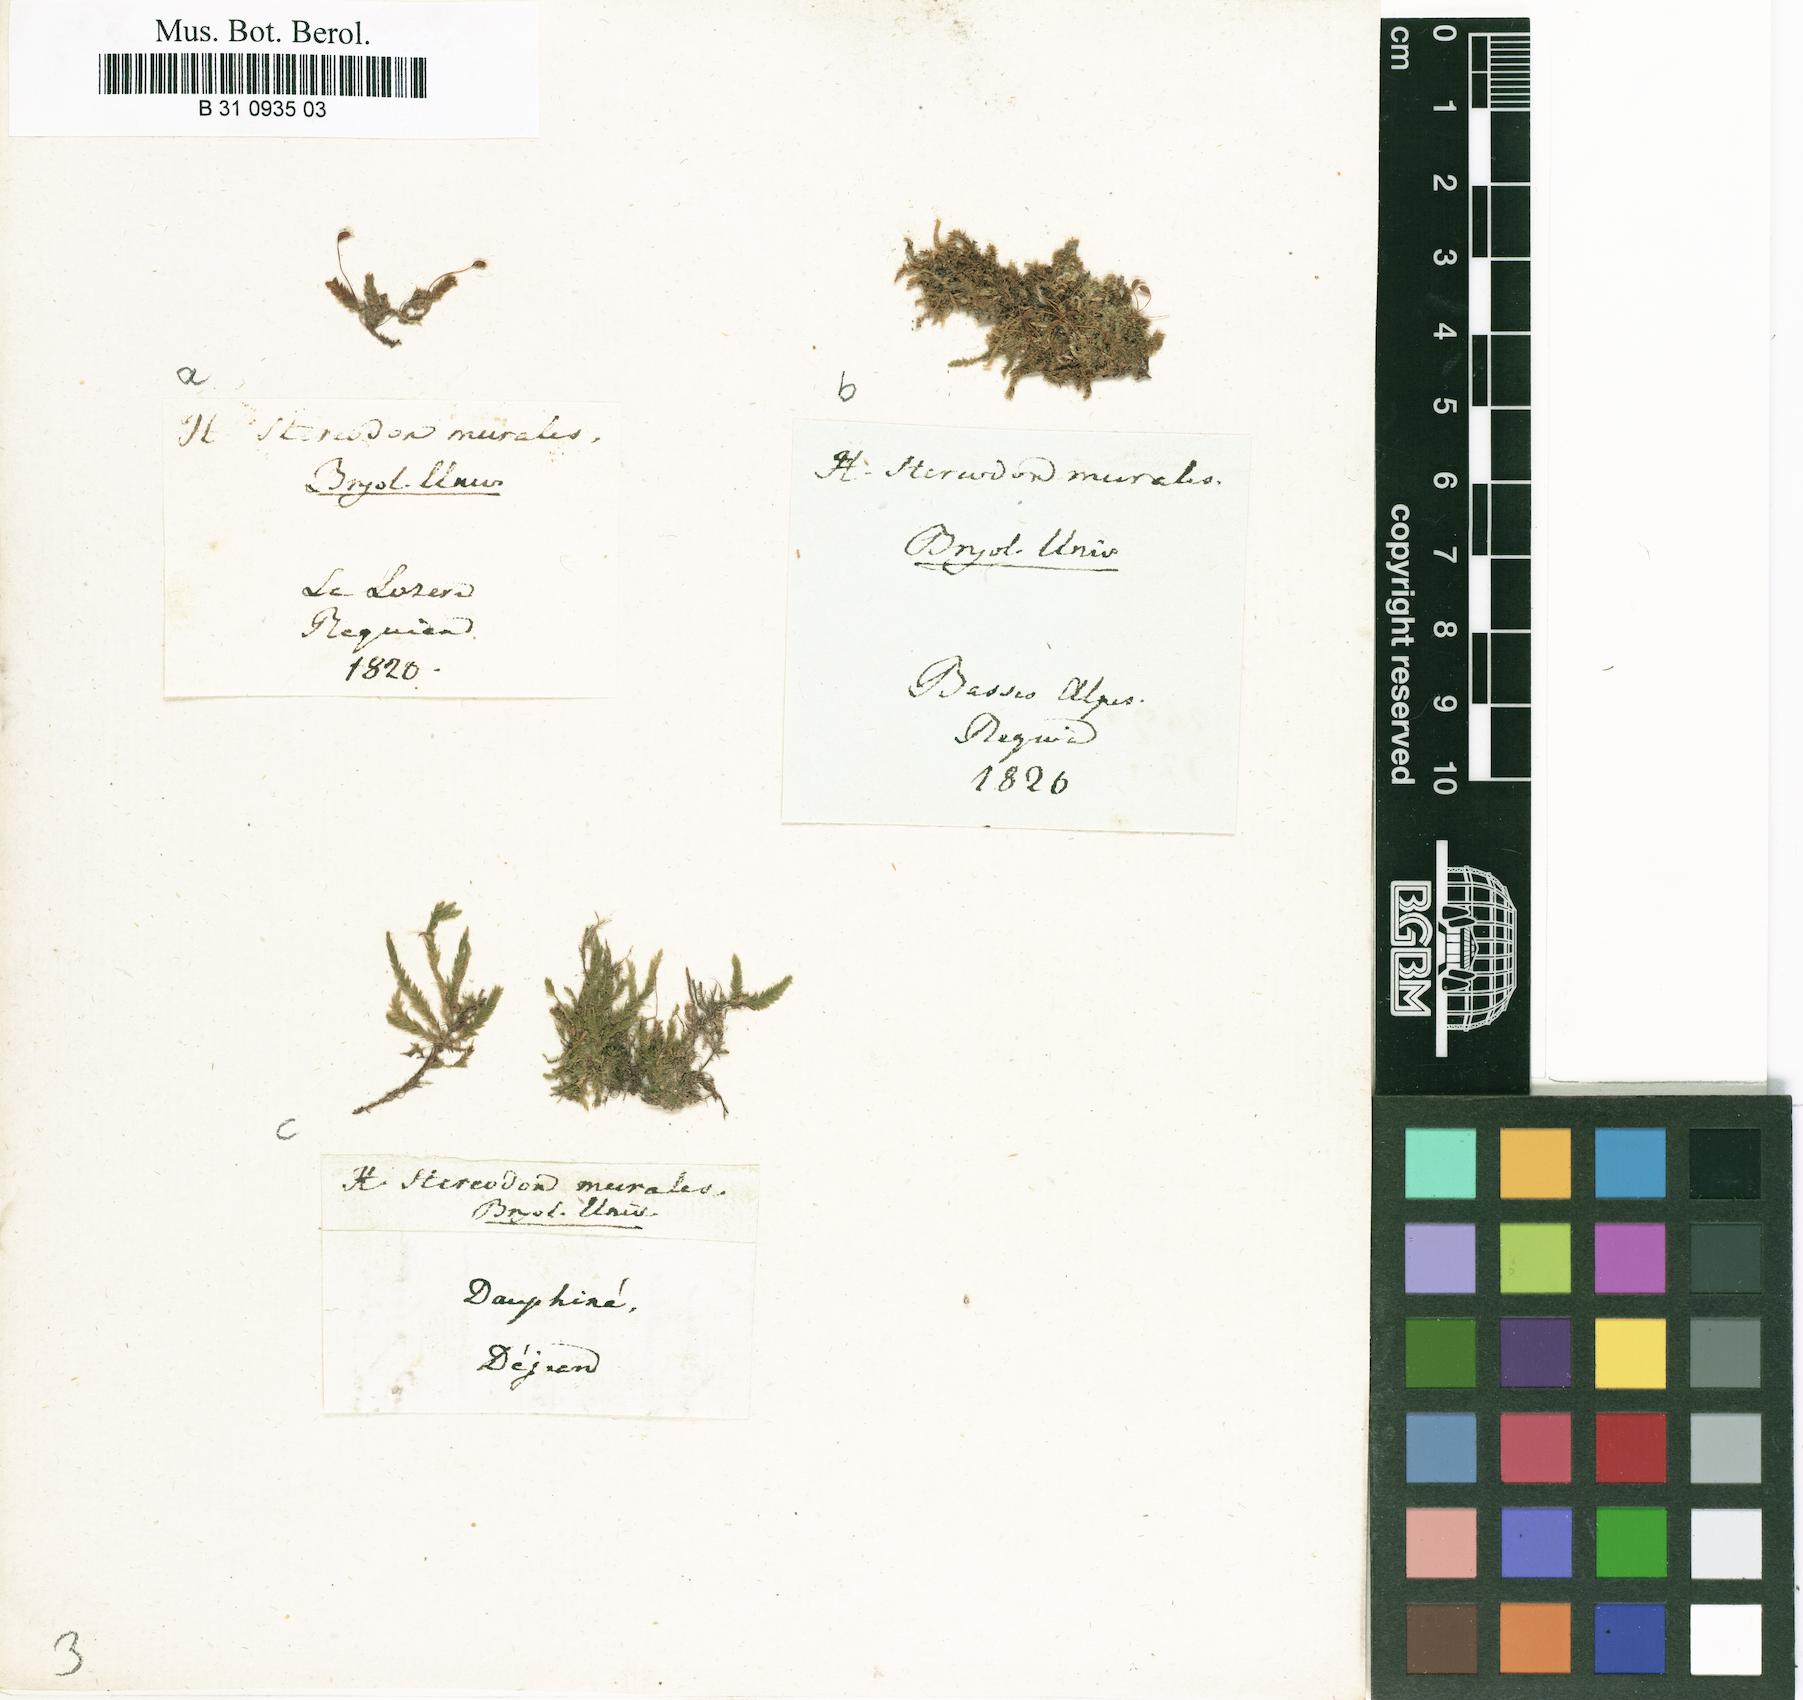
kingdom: Plantae
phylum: Bryophyta
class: Bryopsida
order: Hypnales
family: Brachytheciaceae
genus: Rhynchostegium
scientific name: Rhynchostegium murale
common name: Wall feather-moss
